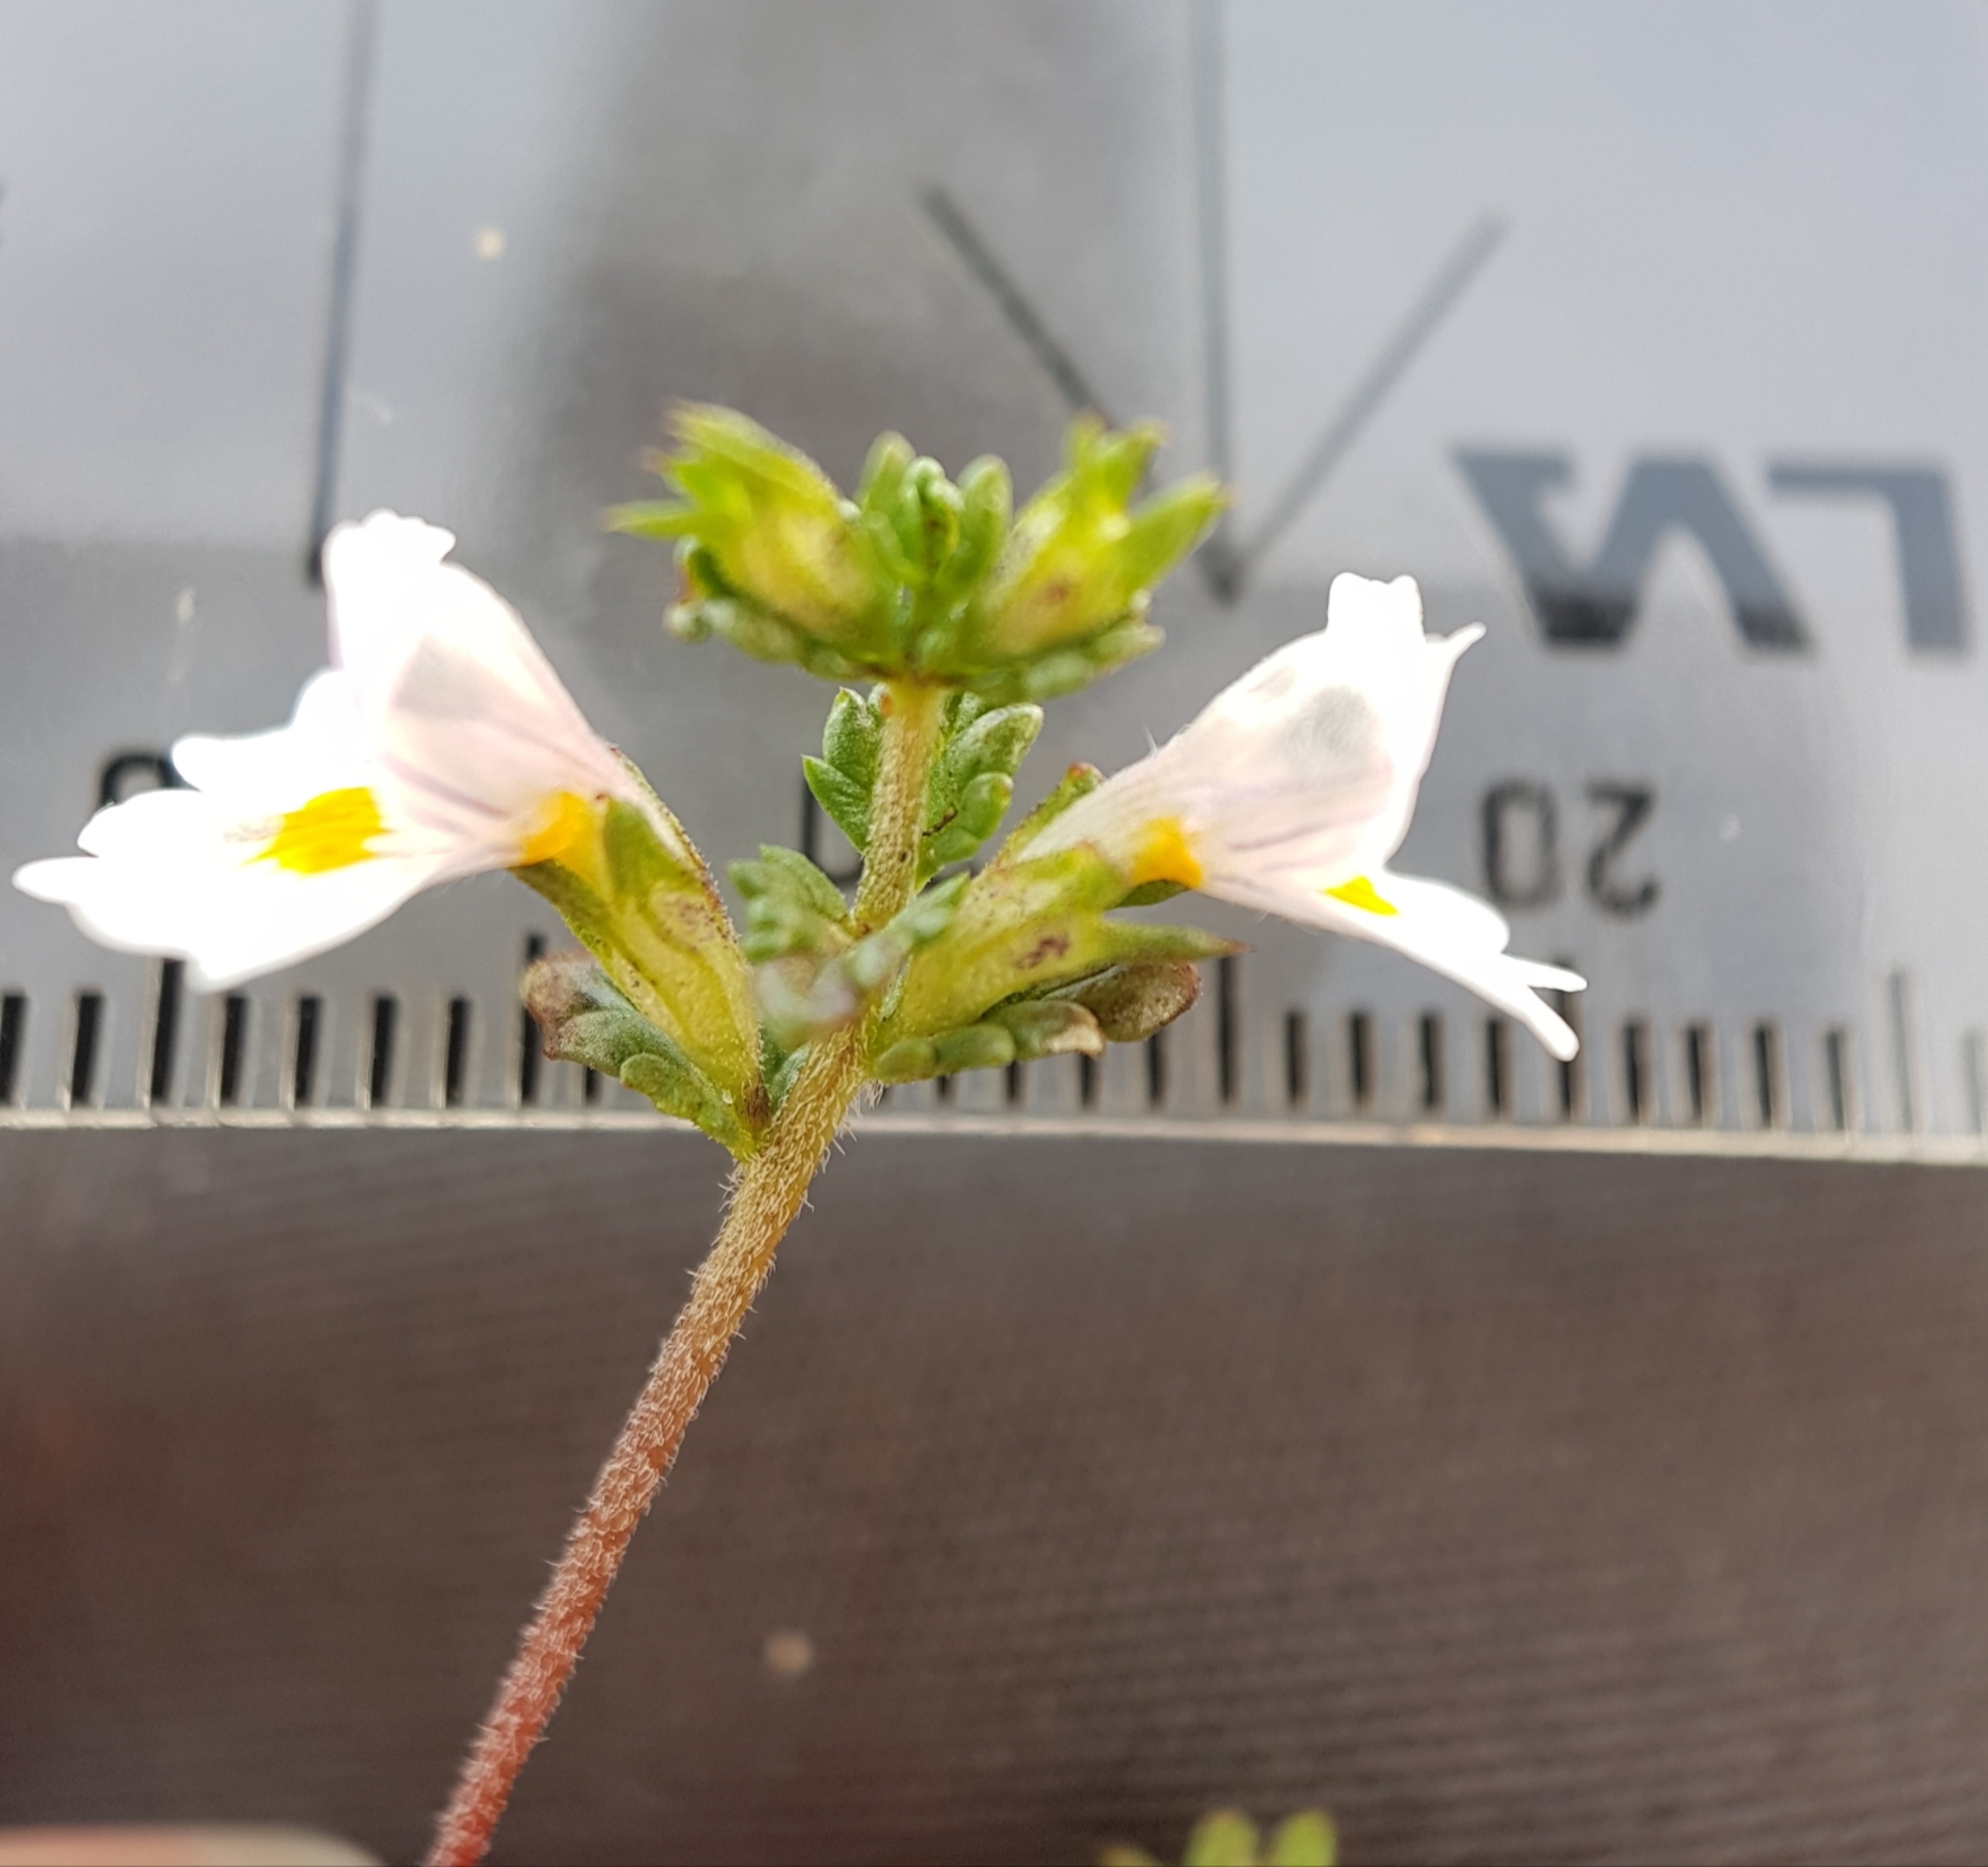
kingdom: Plantae
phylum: Tracheophyta
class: Magnoliopsida
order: Lamiales
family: Orobanchaceae
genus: Euphrasia
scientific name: Euphrasia arctica
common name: Nordisk øjentrøst
